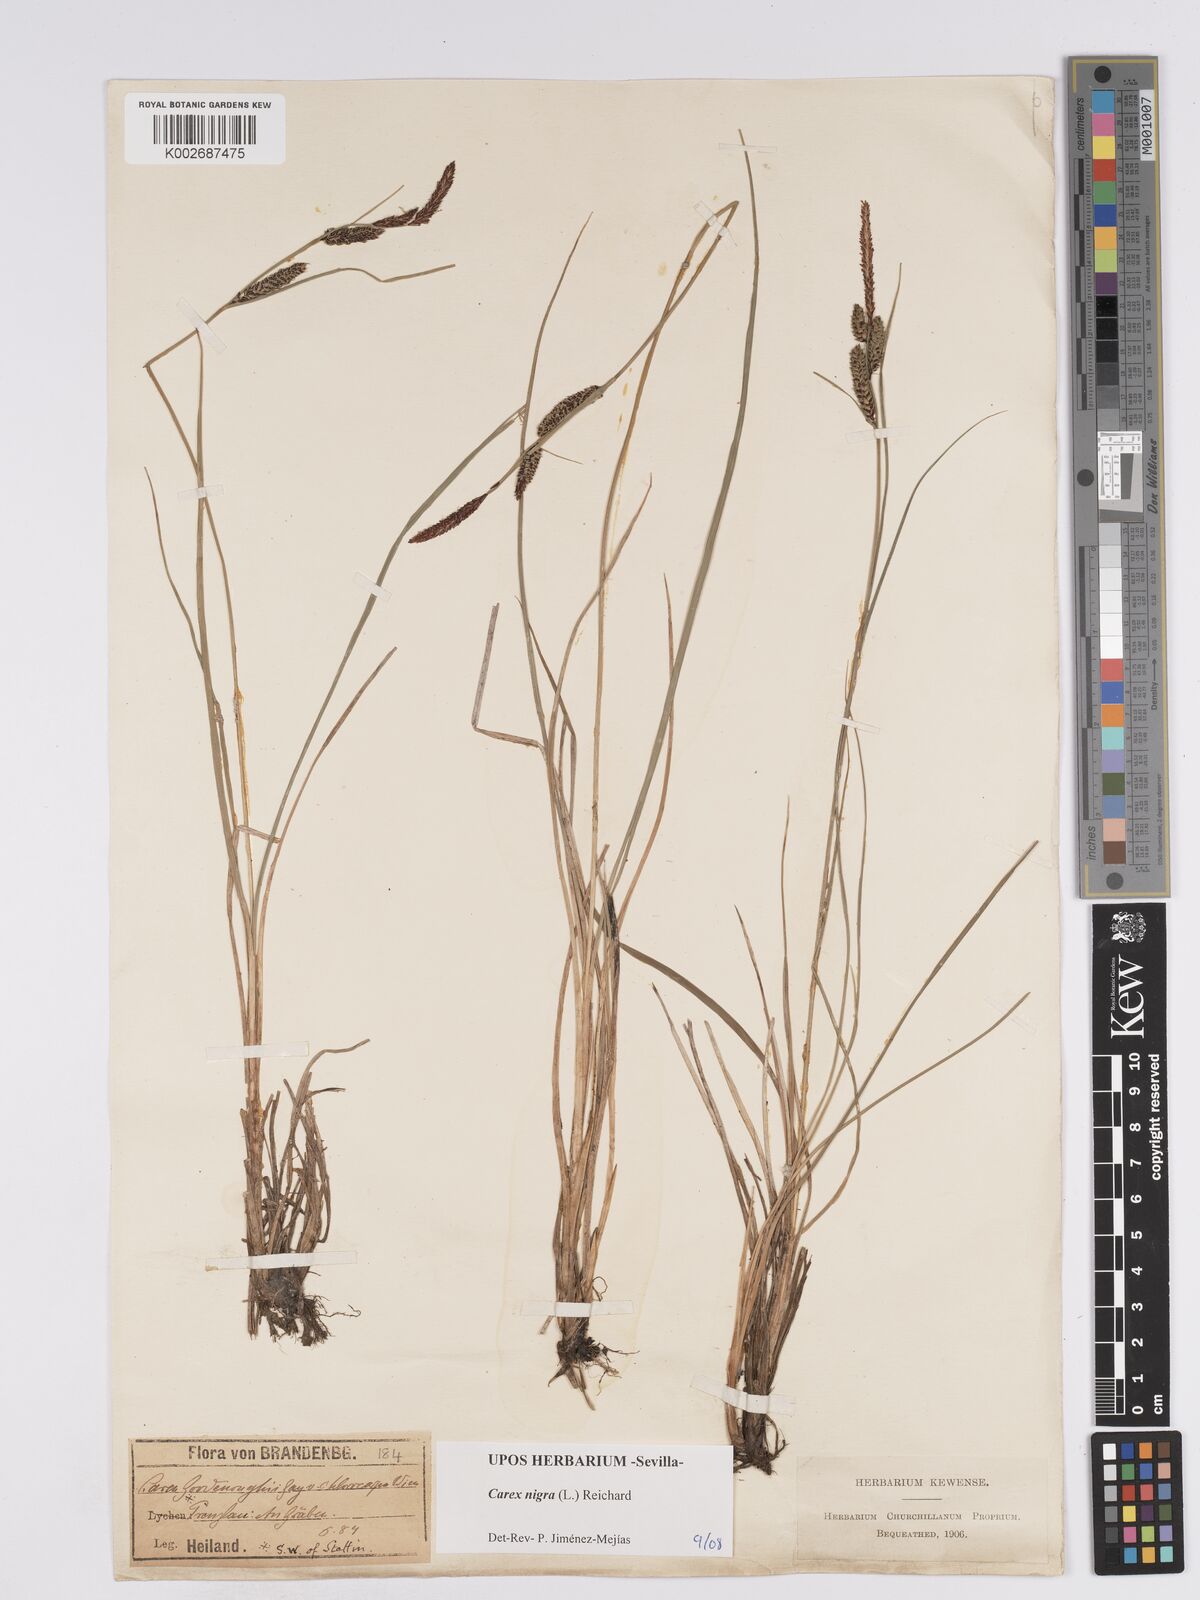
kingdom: Plantae
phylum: Tracheophyta
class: Liliopsida
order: Poales
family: Cyperaceae
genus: Carex
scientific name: Carex nigra
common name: Common sedge
